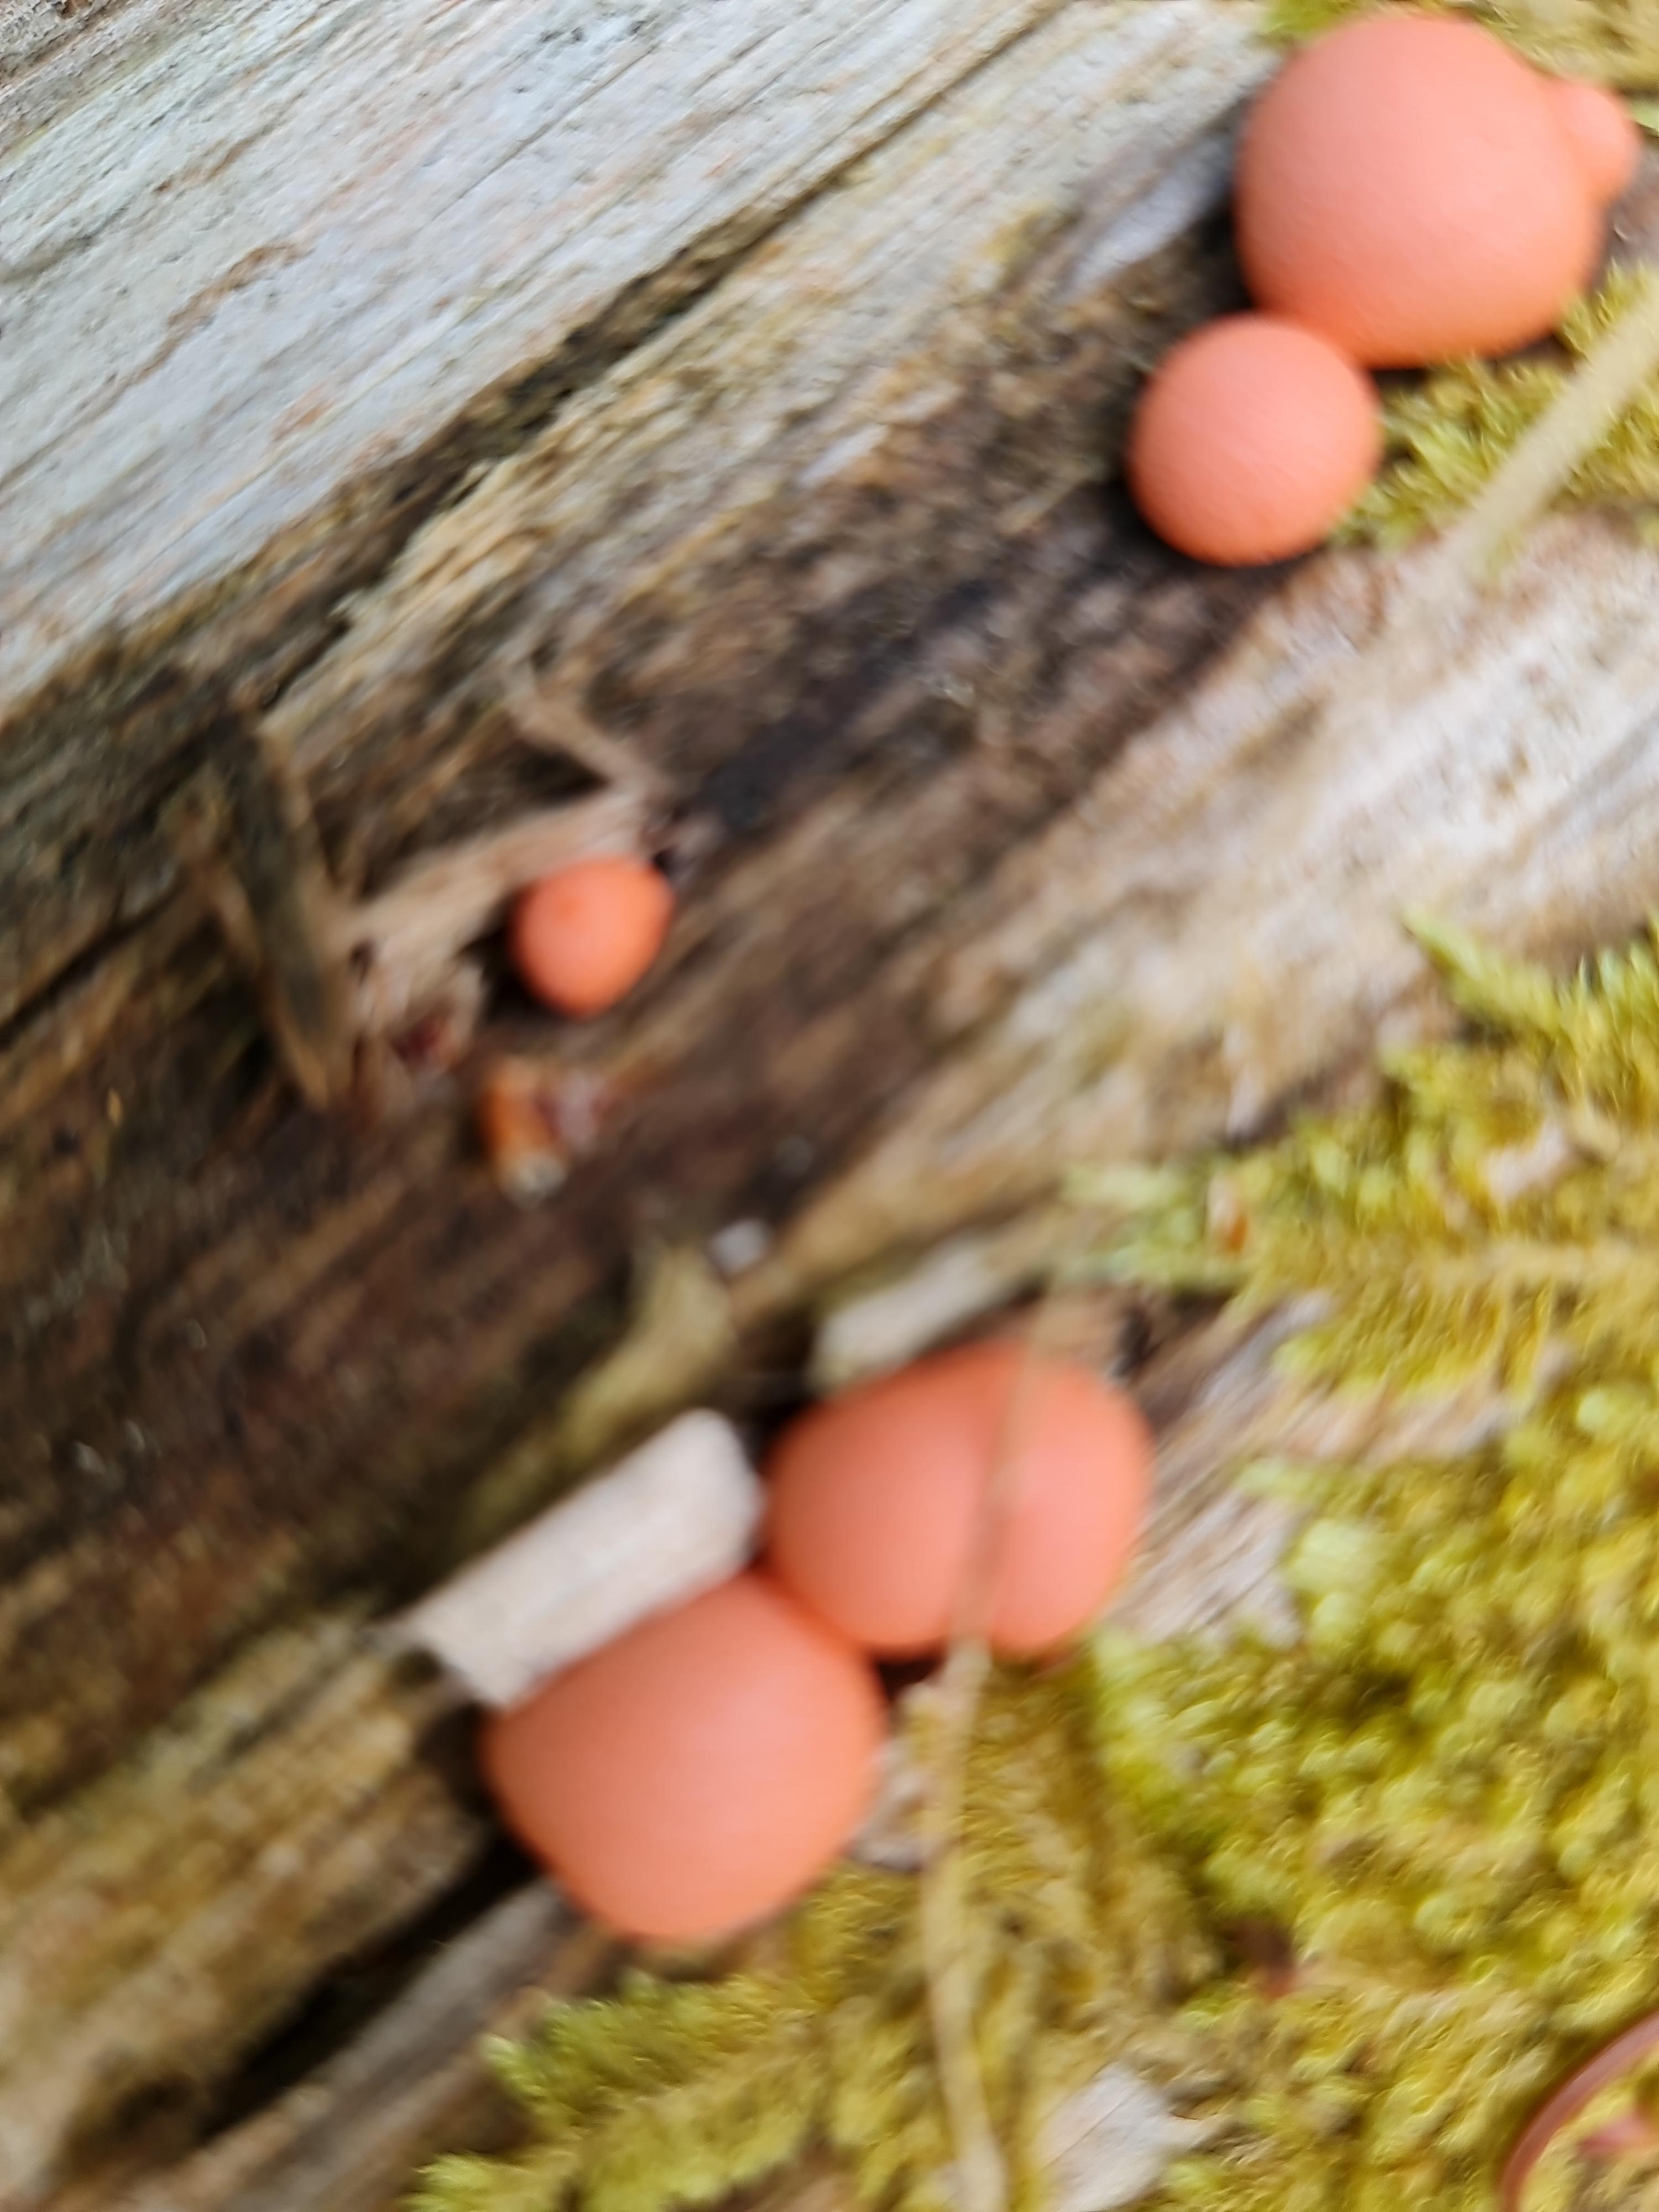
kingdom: Protozoa
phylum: Mycetozoa
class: Myxomycetes
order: Cribrariales
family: Tubiferaceae
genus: Lycogala
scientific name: Lycogala epidendrum
